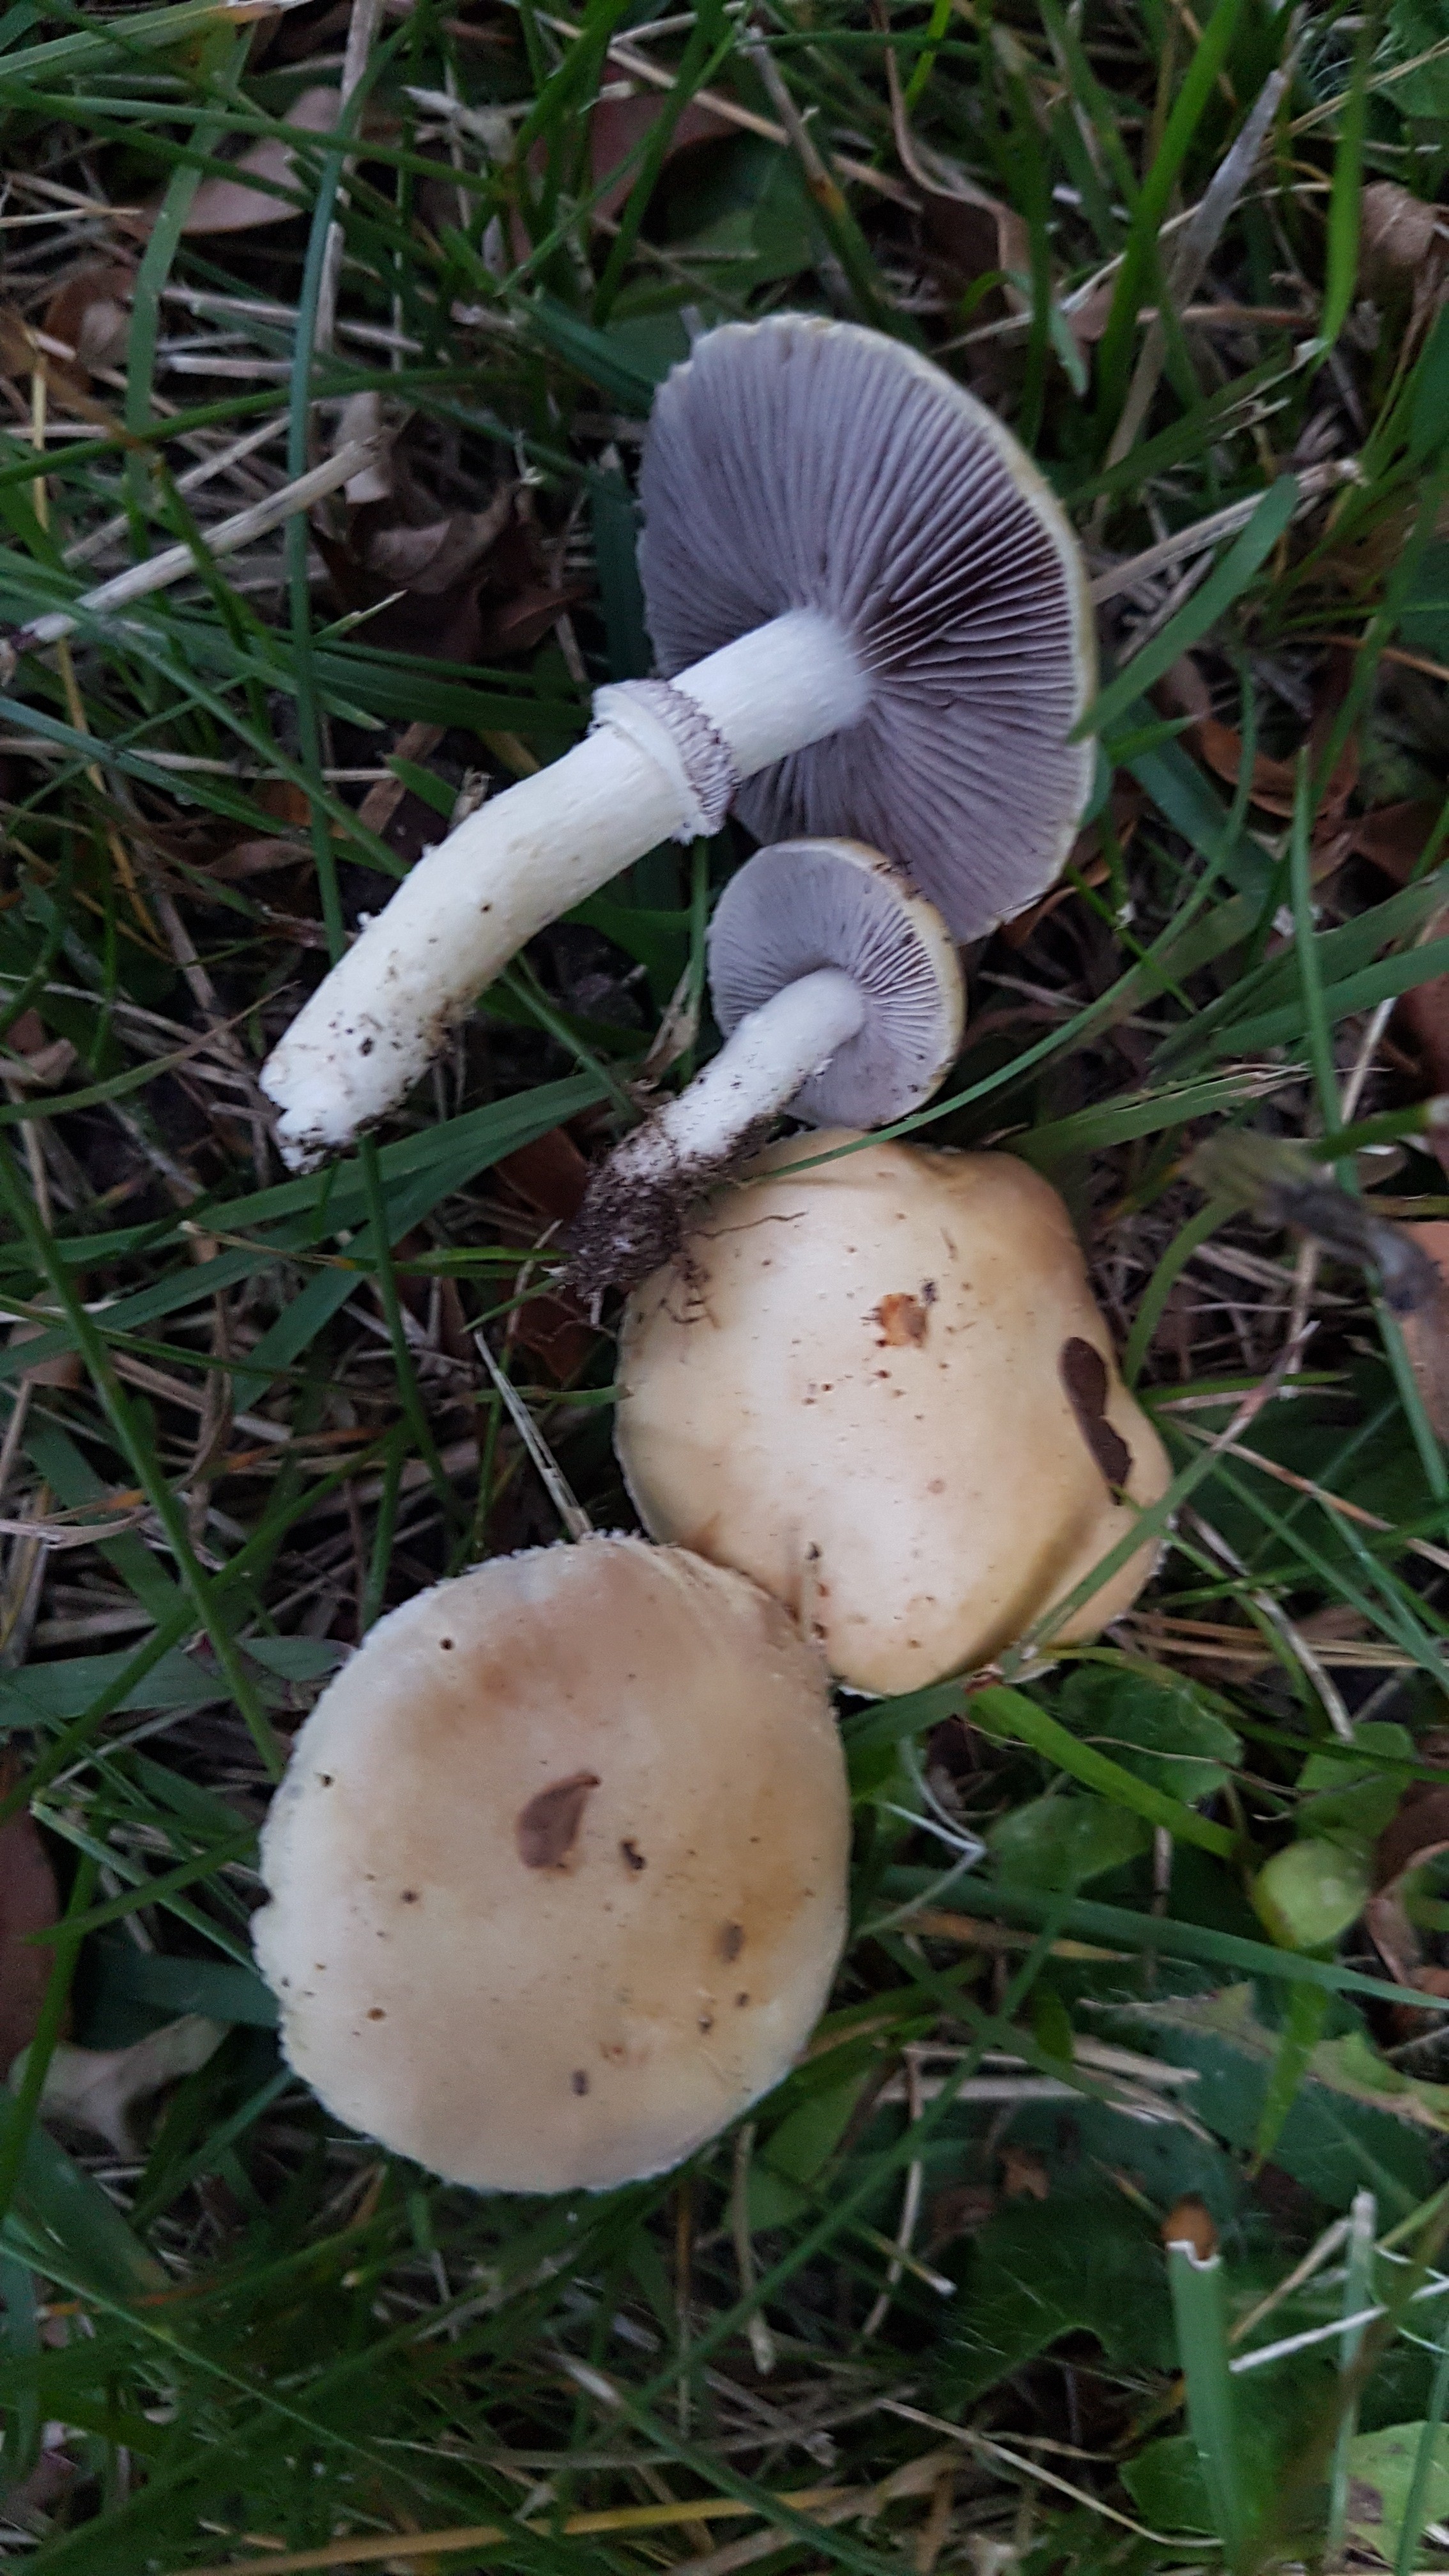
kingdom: Fungi
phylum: Basidiomycota
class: Agaricomycetes
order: Agaricales
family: Hymenogastraceae
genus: Psilocybe
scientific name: Psilocybe coronilla
